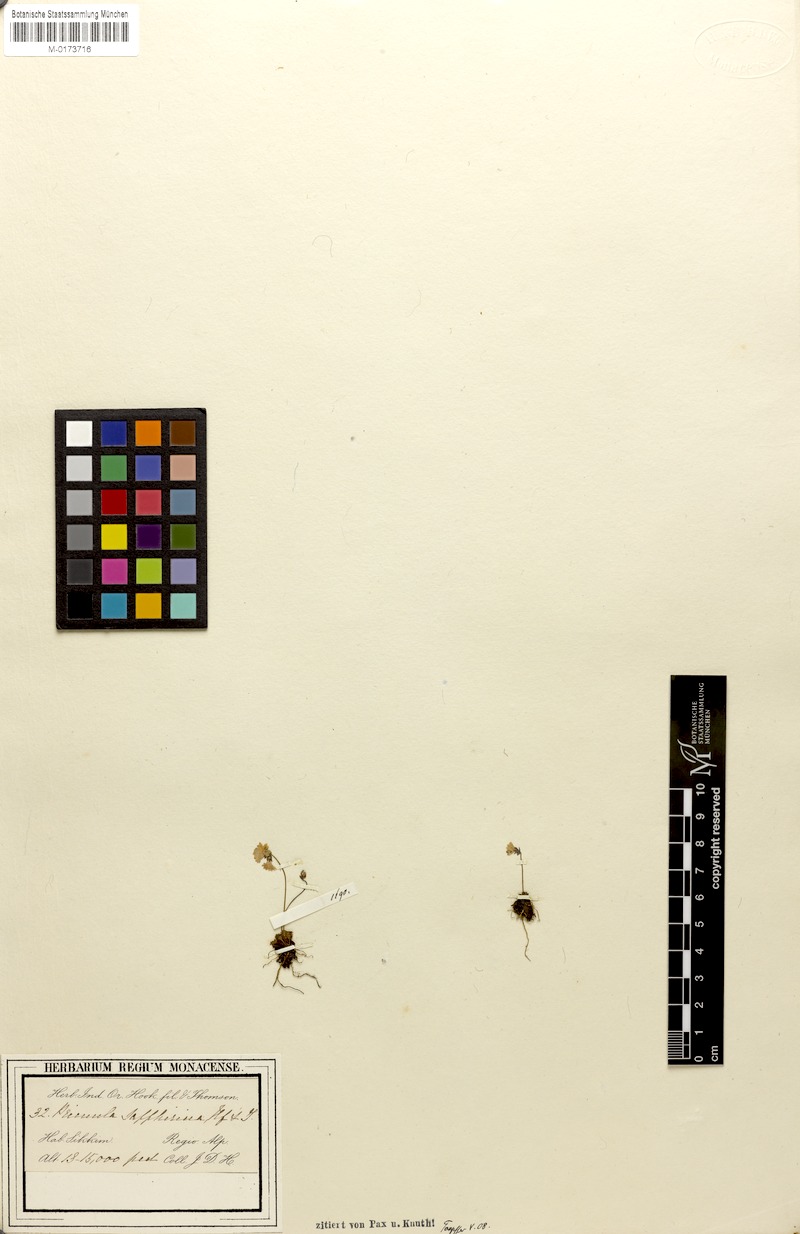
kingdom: Plantae
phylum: Tracheophyta
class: Magnoliopsida
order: Ericales
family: Primulaceae
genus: Primula
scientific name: Primula sapphirina
